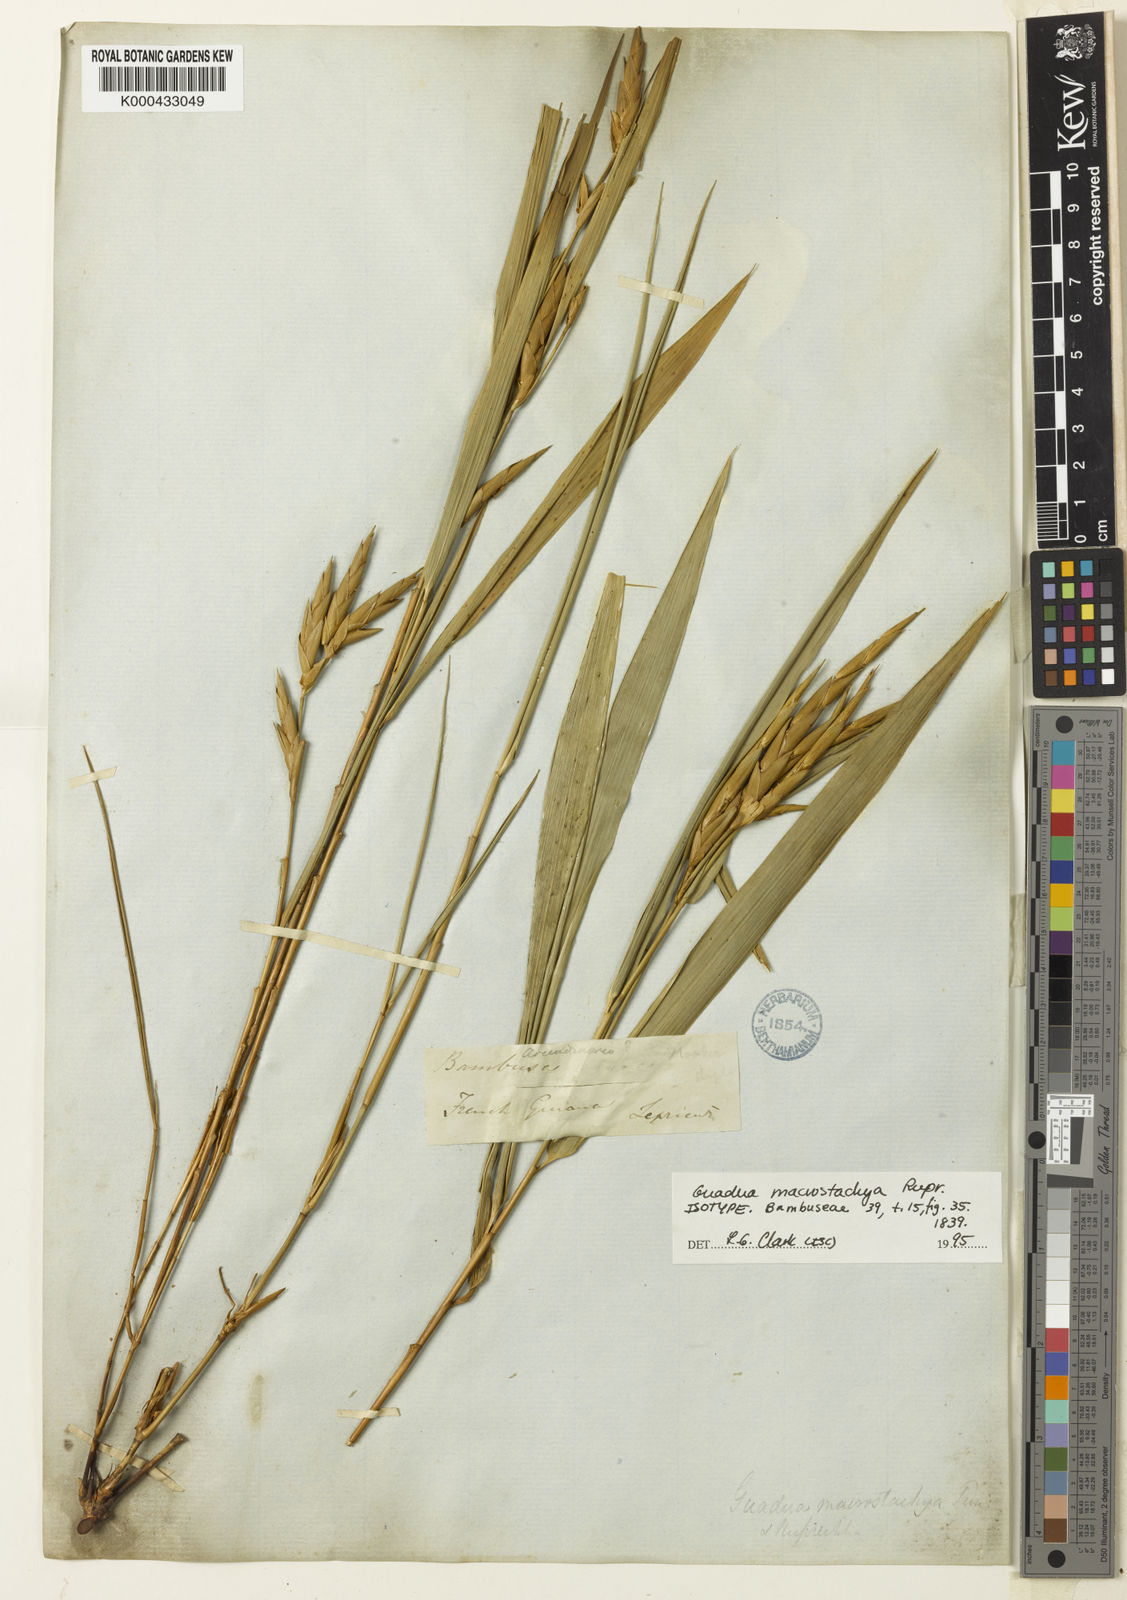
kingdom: Plantae
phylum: Tracheophyta
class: Liliopsida
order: Poales
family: Poaceae
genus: Guadua
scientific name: Guadua macrostachya
